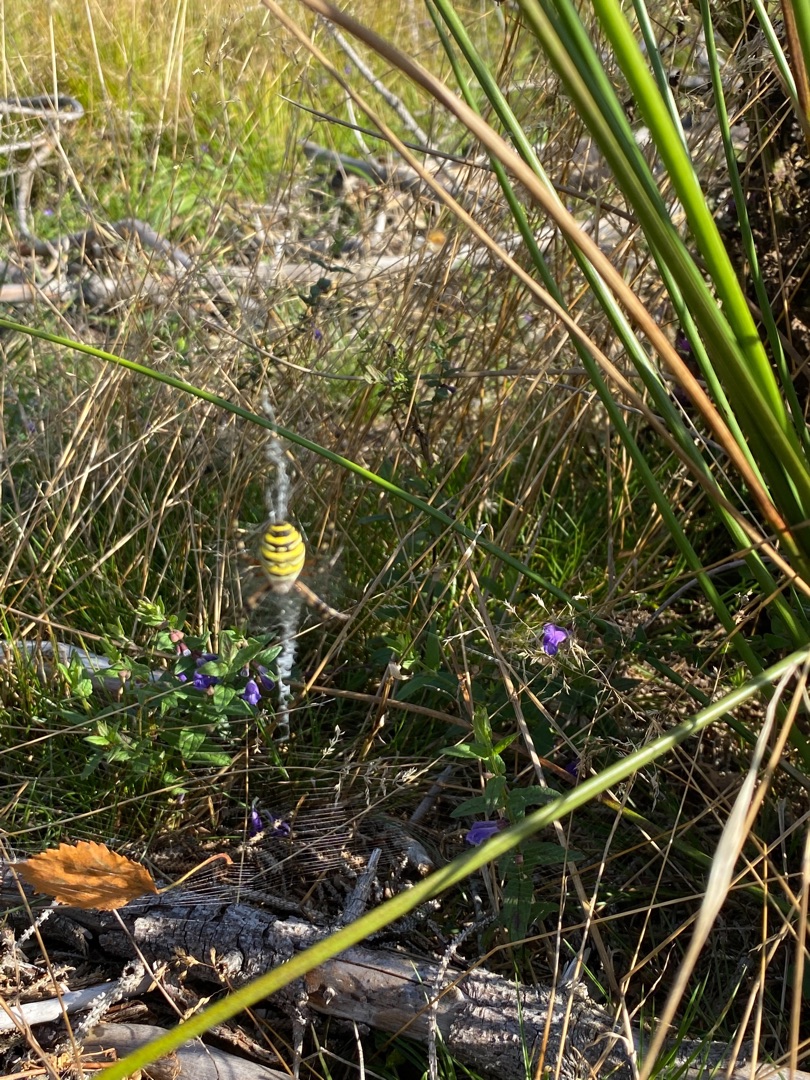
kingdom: Animalia
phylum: Arthropoda
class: Arachnida
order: Araneae
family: Araneidae
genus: Argiope
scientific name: Argiope bruennichi
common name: Hvepseedderkop
